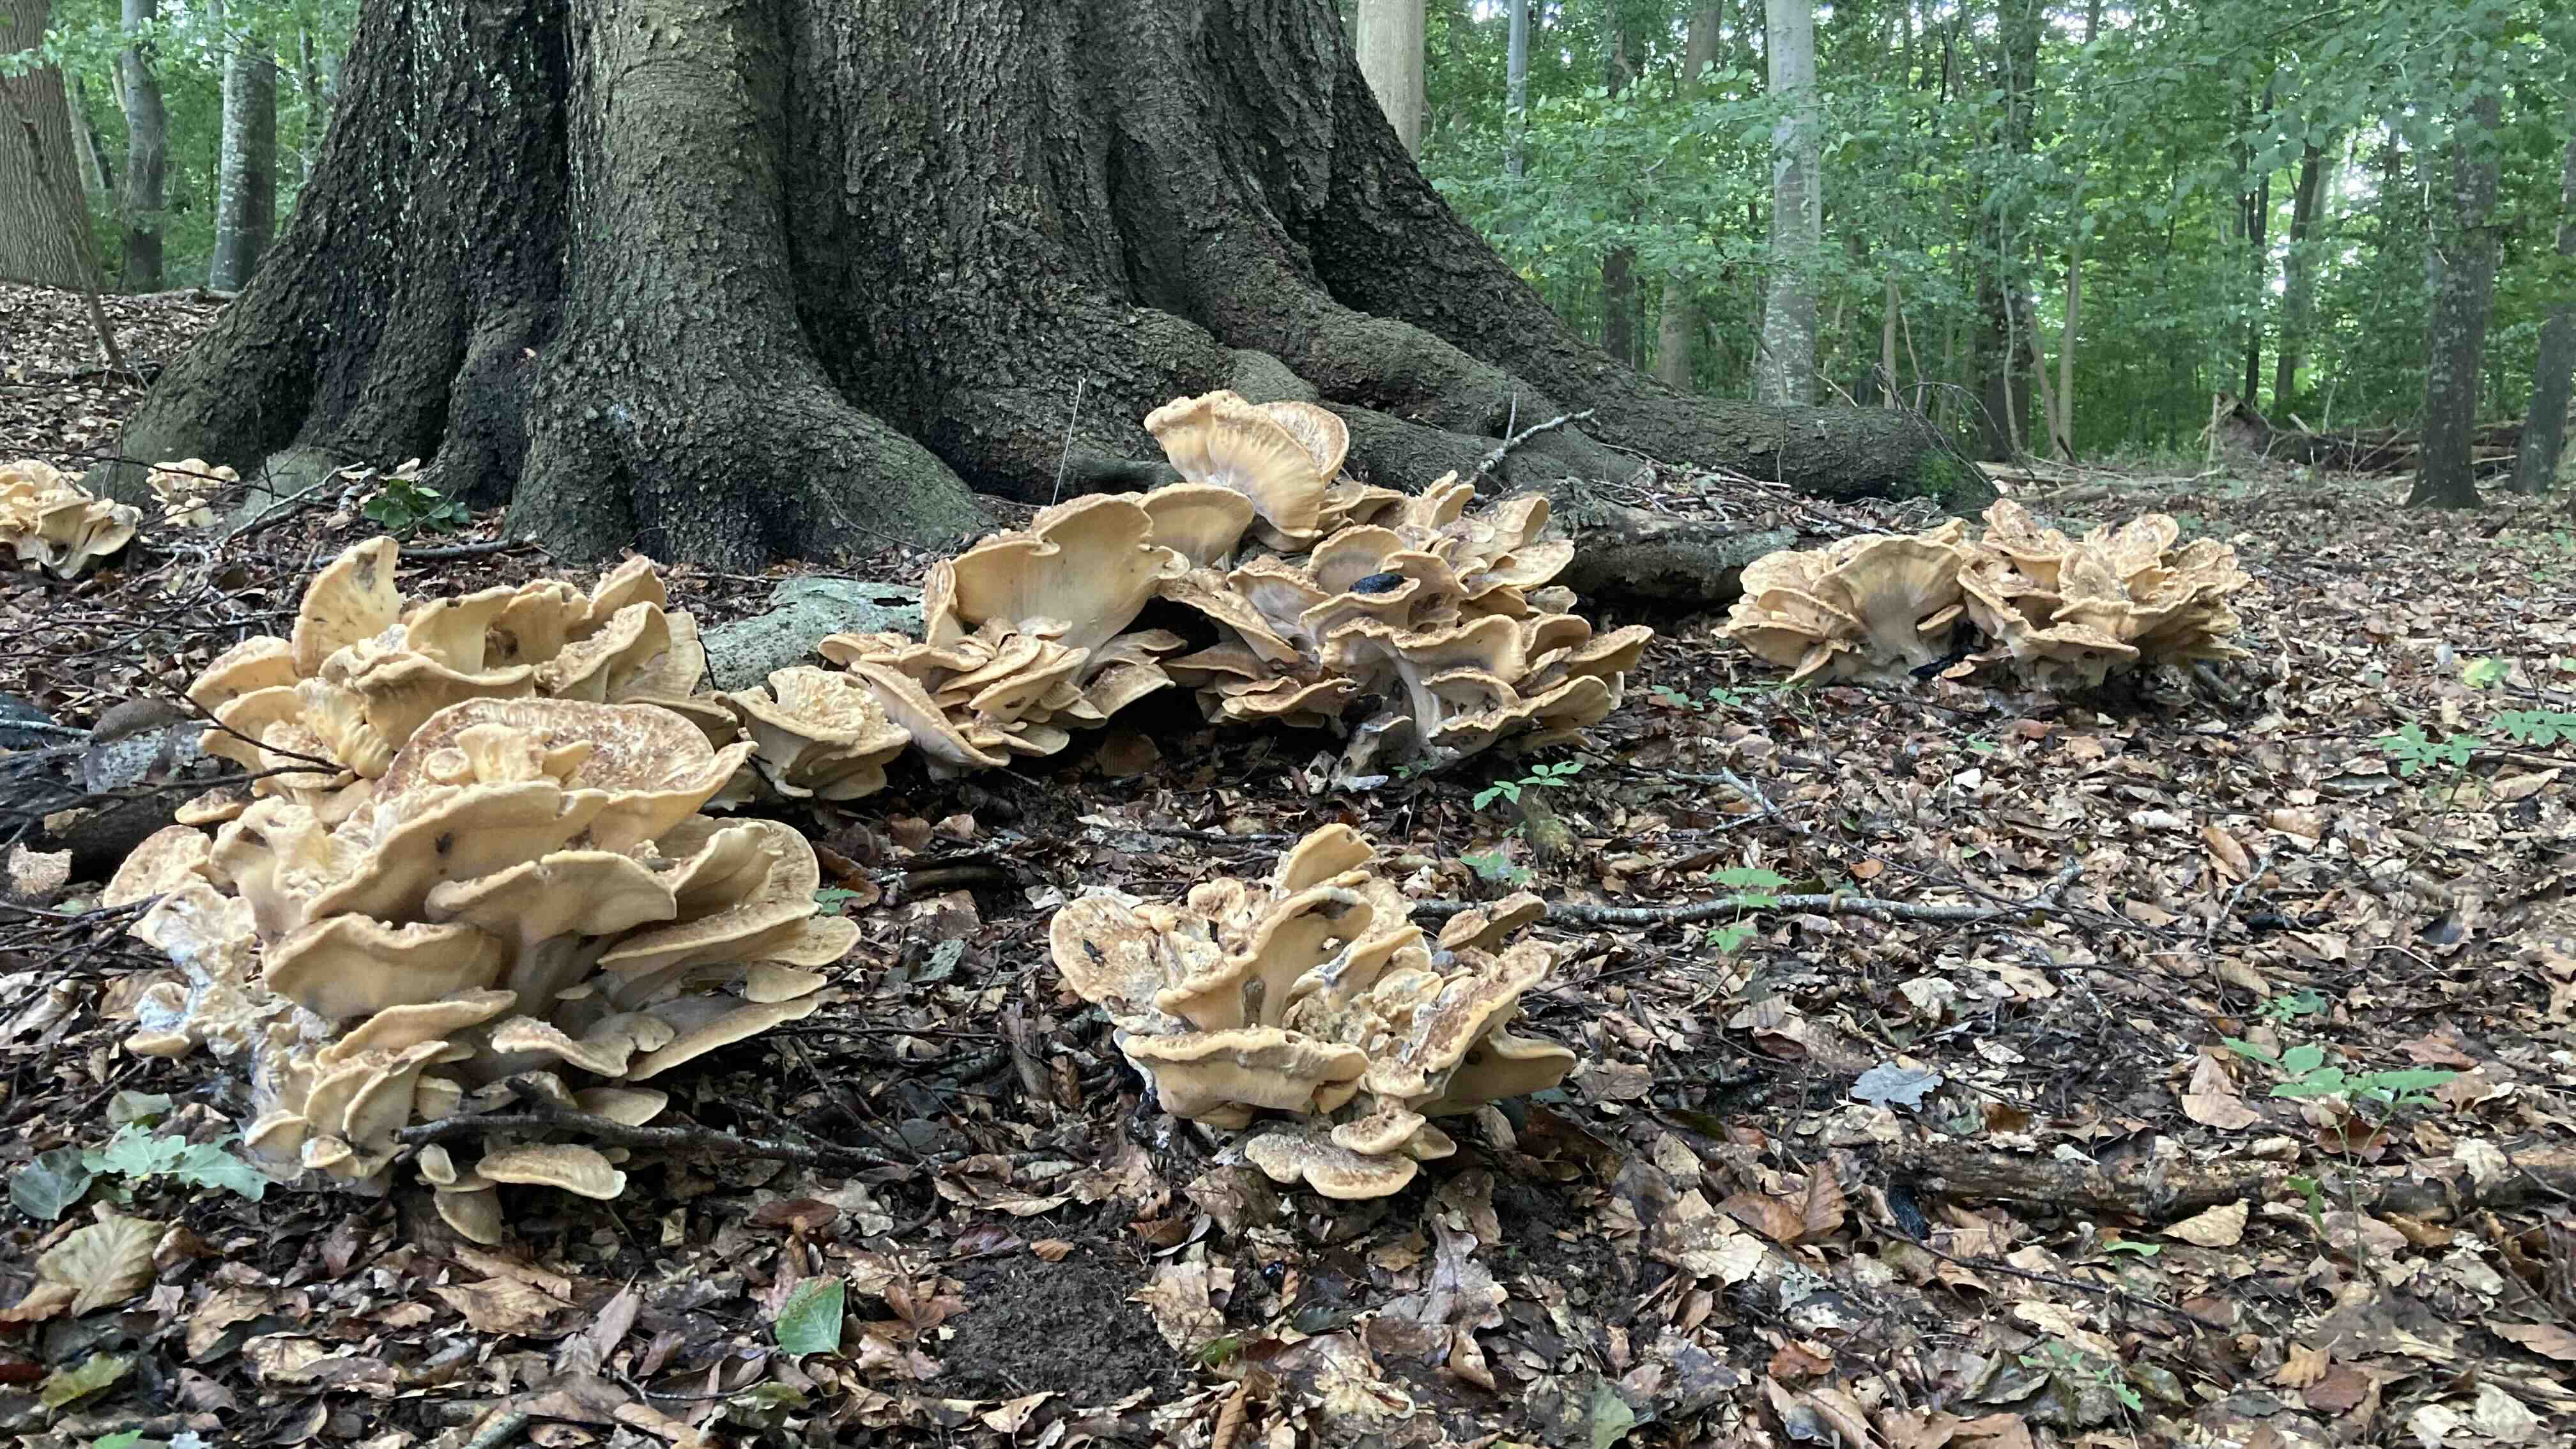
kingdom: Fungi
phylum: Basidiomycota
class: Agaricomycetes
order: Polyporales
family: Meripilaceae
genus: Meripilus
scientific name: Meripilus giganteus
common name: kæmpeporesvamp
